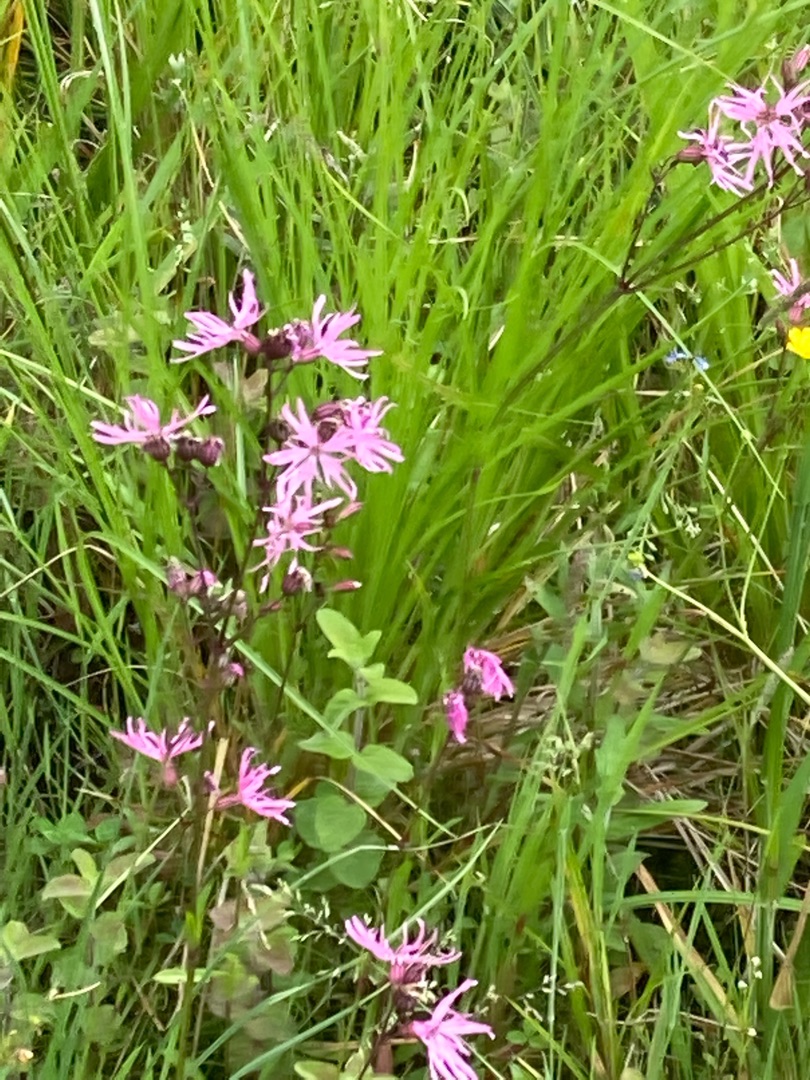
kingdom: Plantae
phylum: Tracheophyta
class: Magnoliopsida
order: Caryophyllales
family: Caryophyllaceae
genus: Silene
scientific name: Silene flos-cuculi
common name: Trævlekrone
